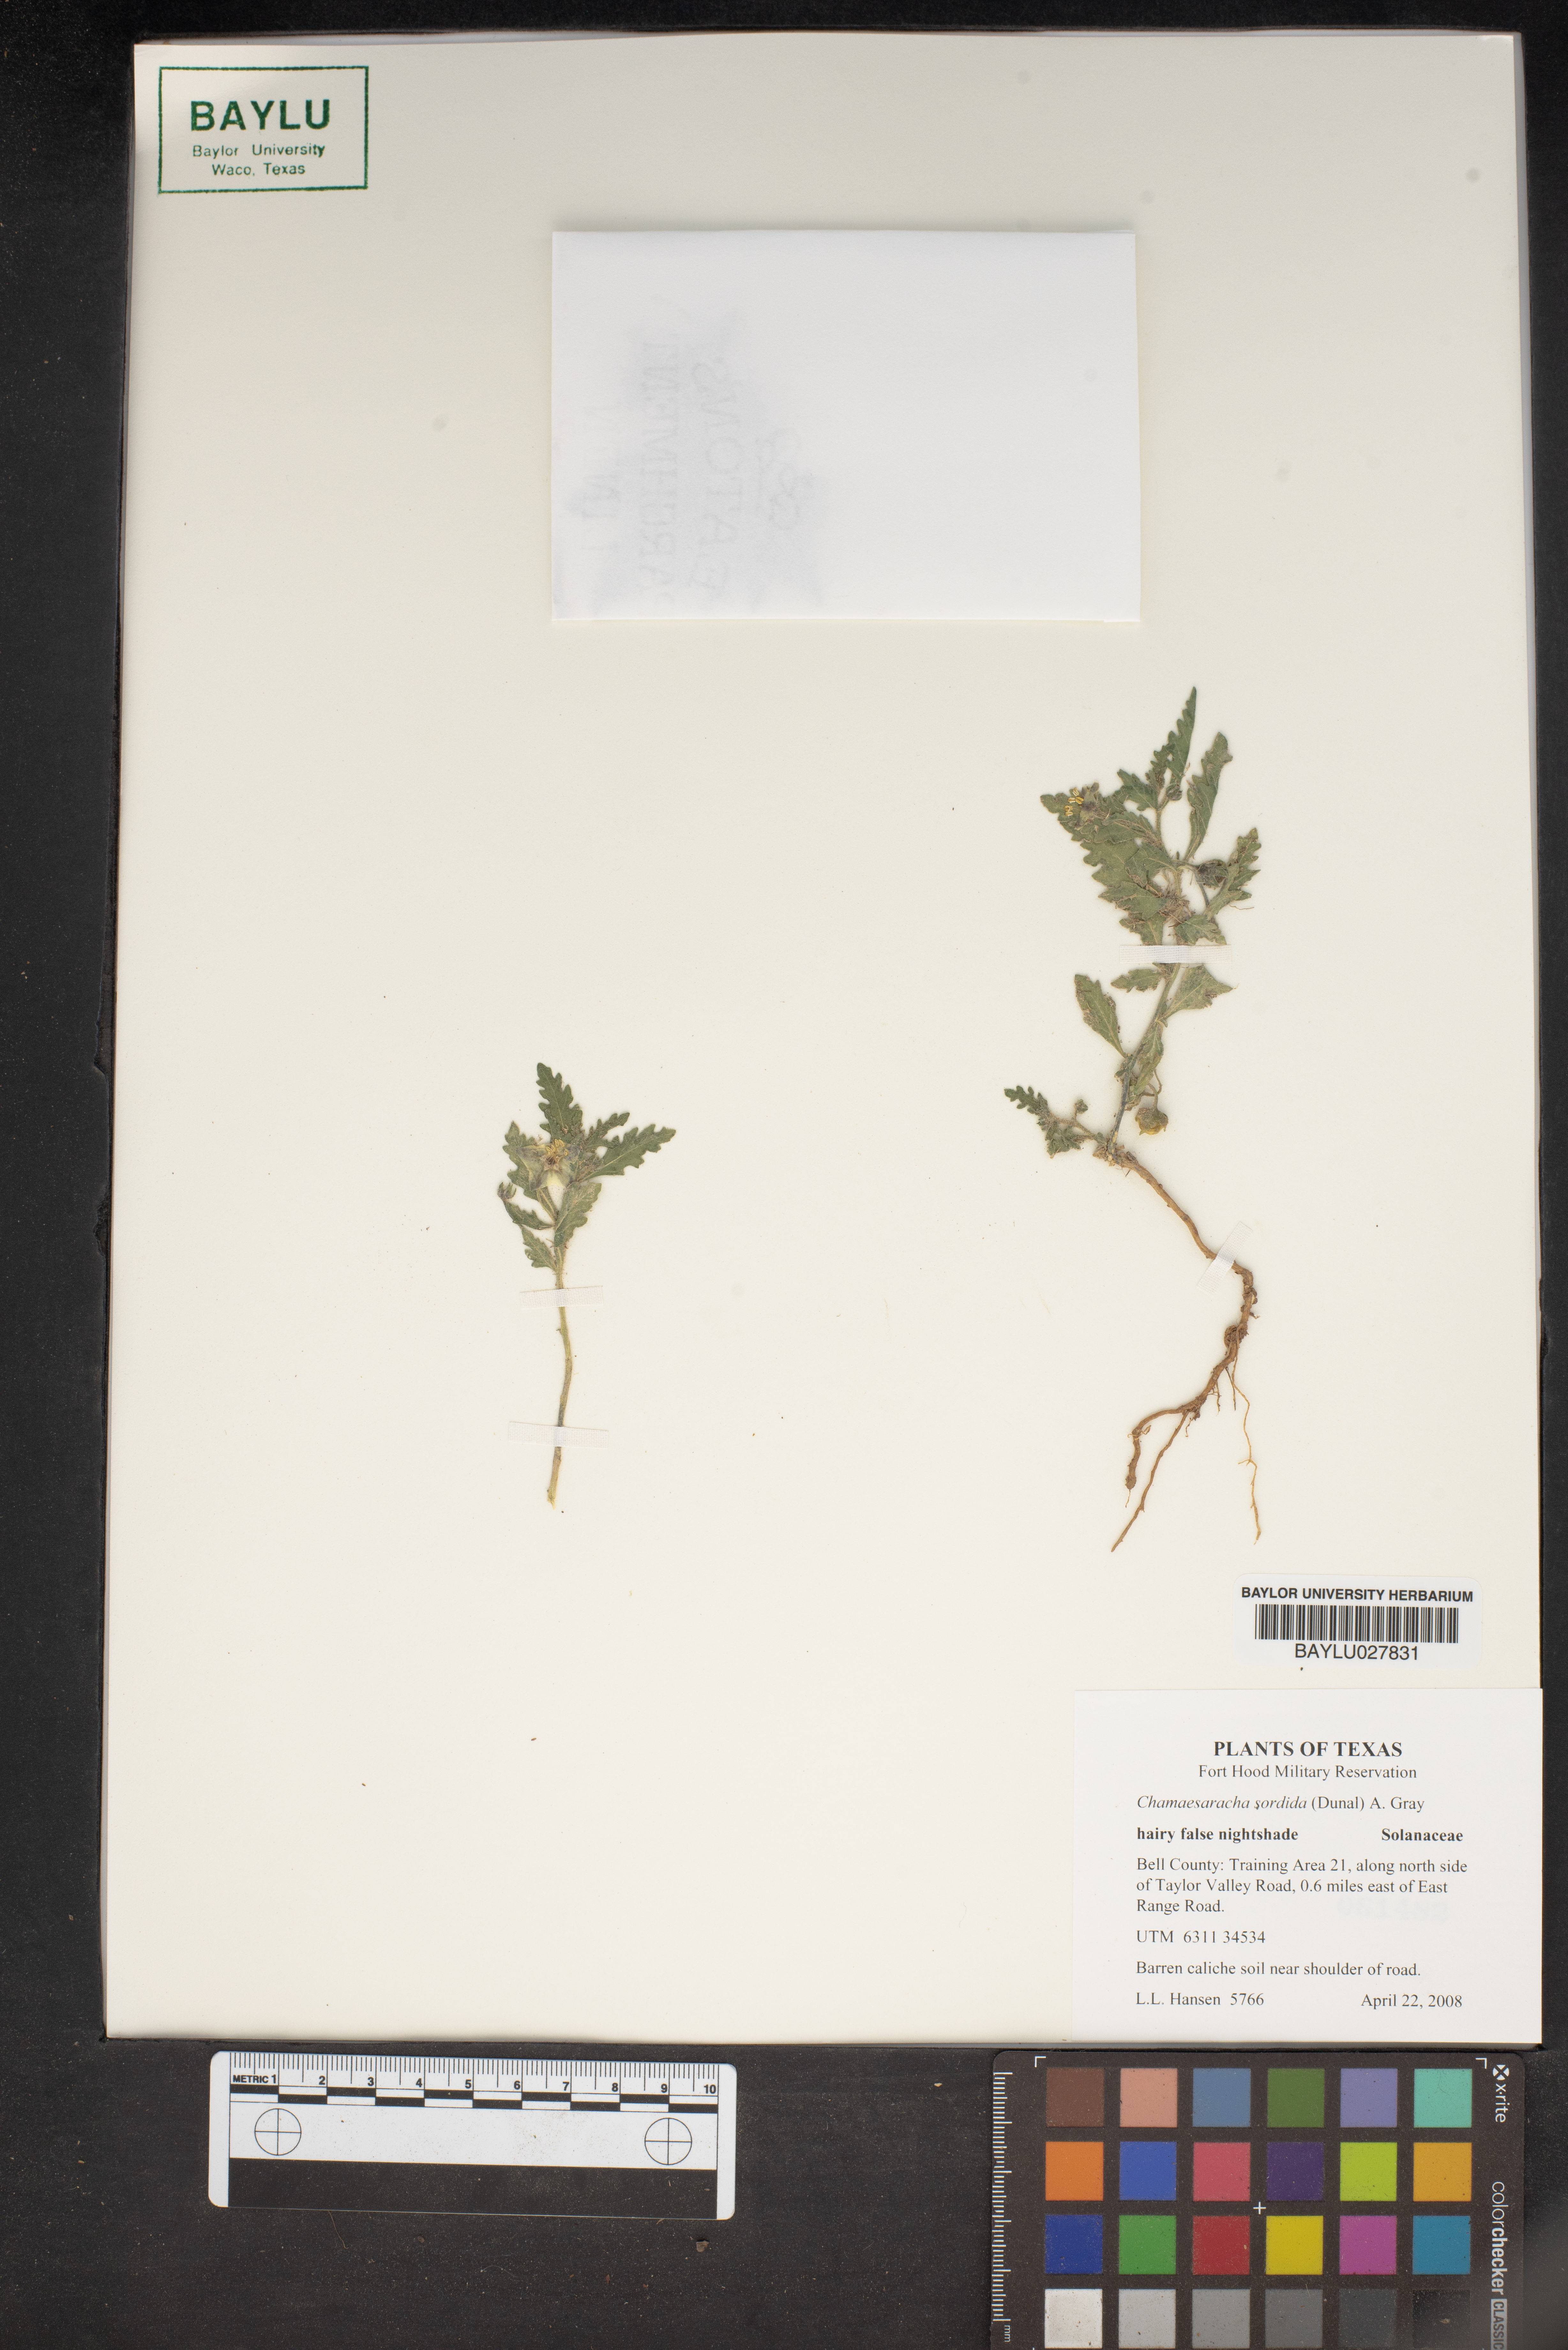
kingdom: Plantae
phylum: Tracheophyta
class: Magnoliopsida
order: Solanales
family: Solanaceae
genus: Chamaesaracha
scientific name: Chamaesaracha sordida
